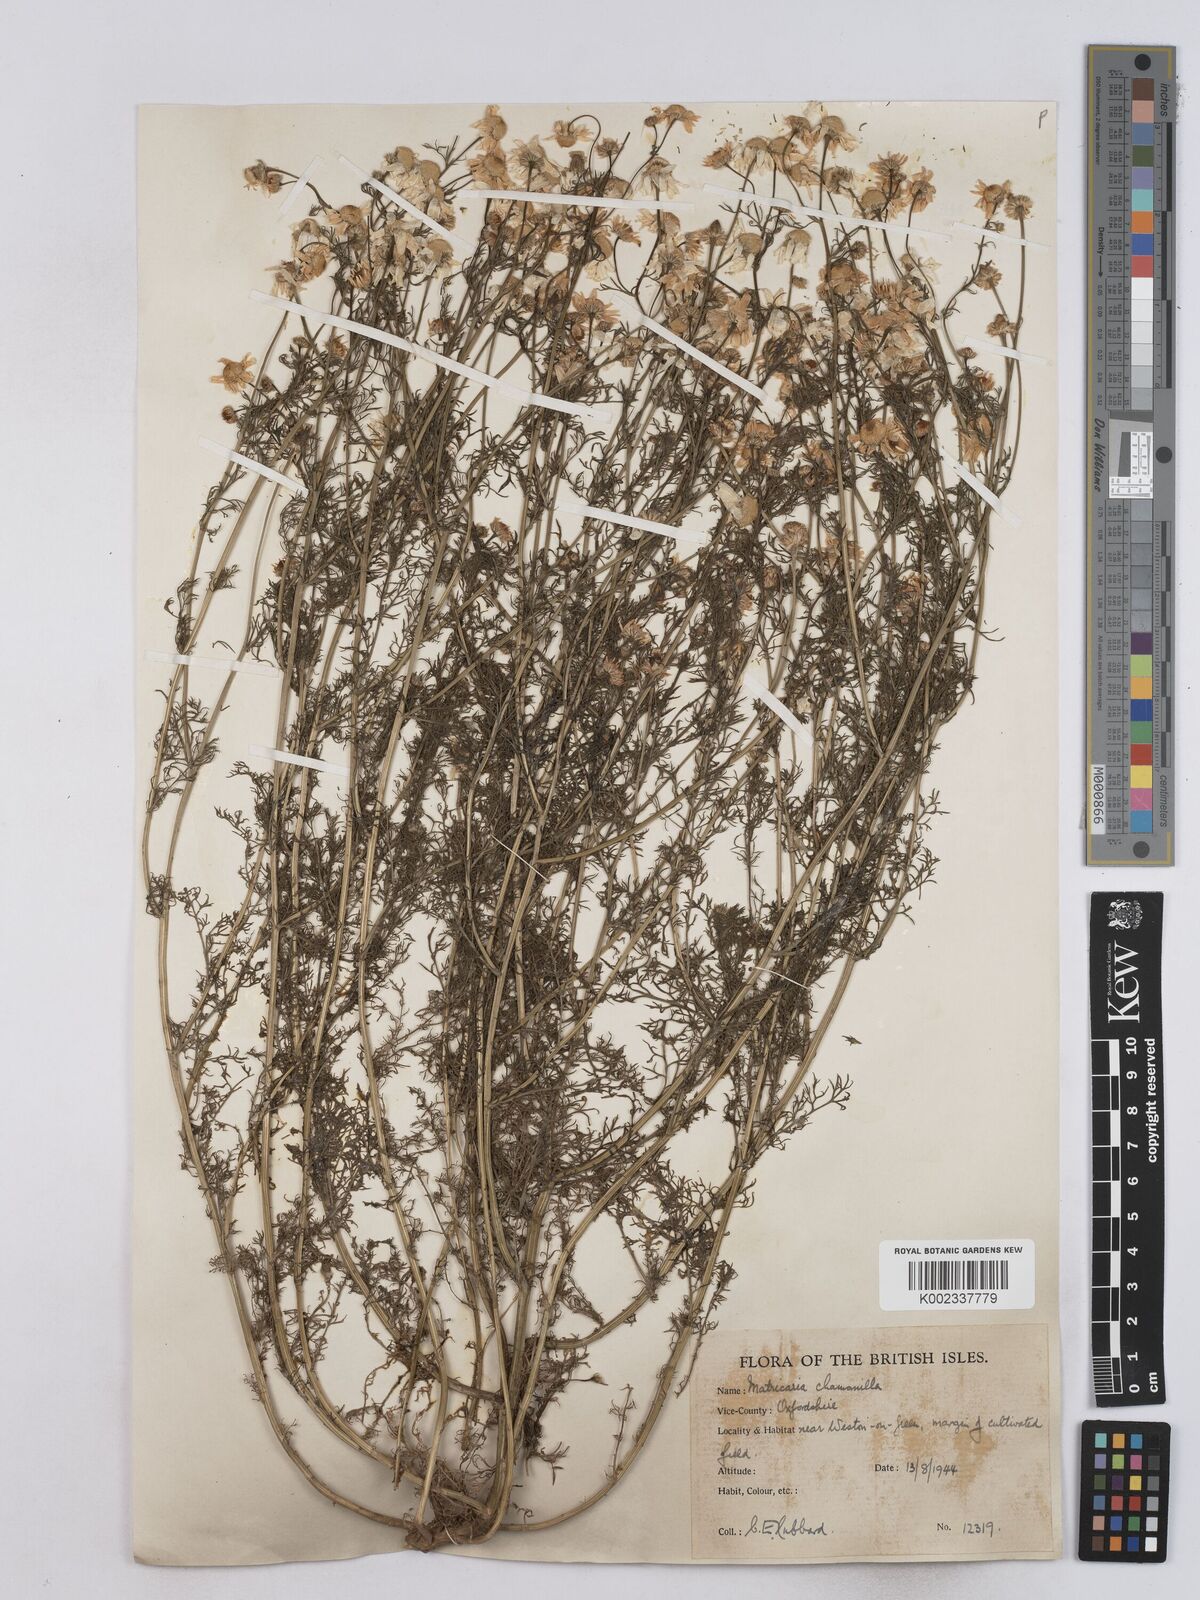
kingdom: Plantae
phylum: Tracheophyta
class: Magnoliopsida
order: Asterales
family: Asteraceae
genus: Matricaria
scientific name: Matricaria chamomilla
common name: Scented mayweed
